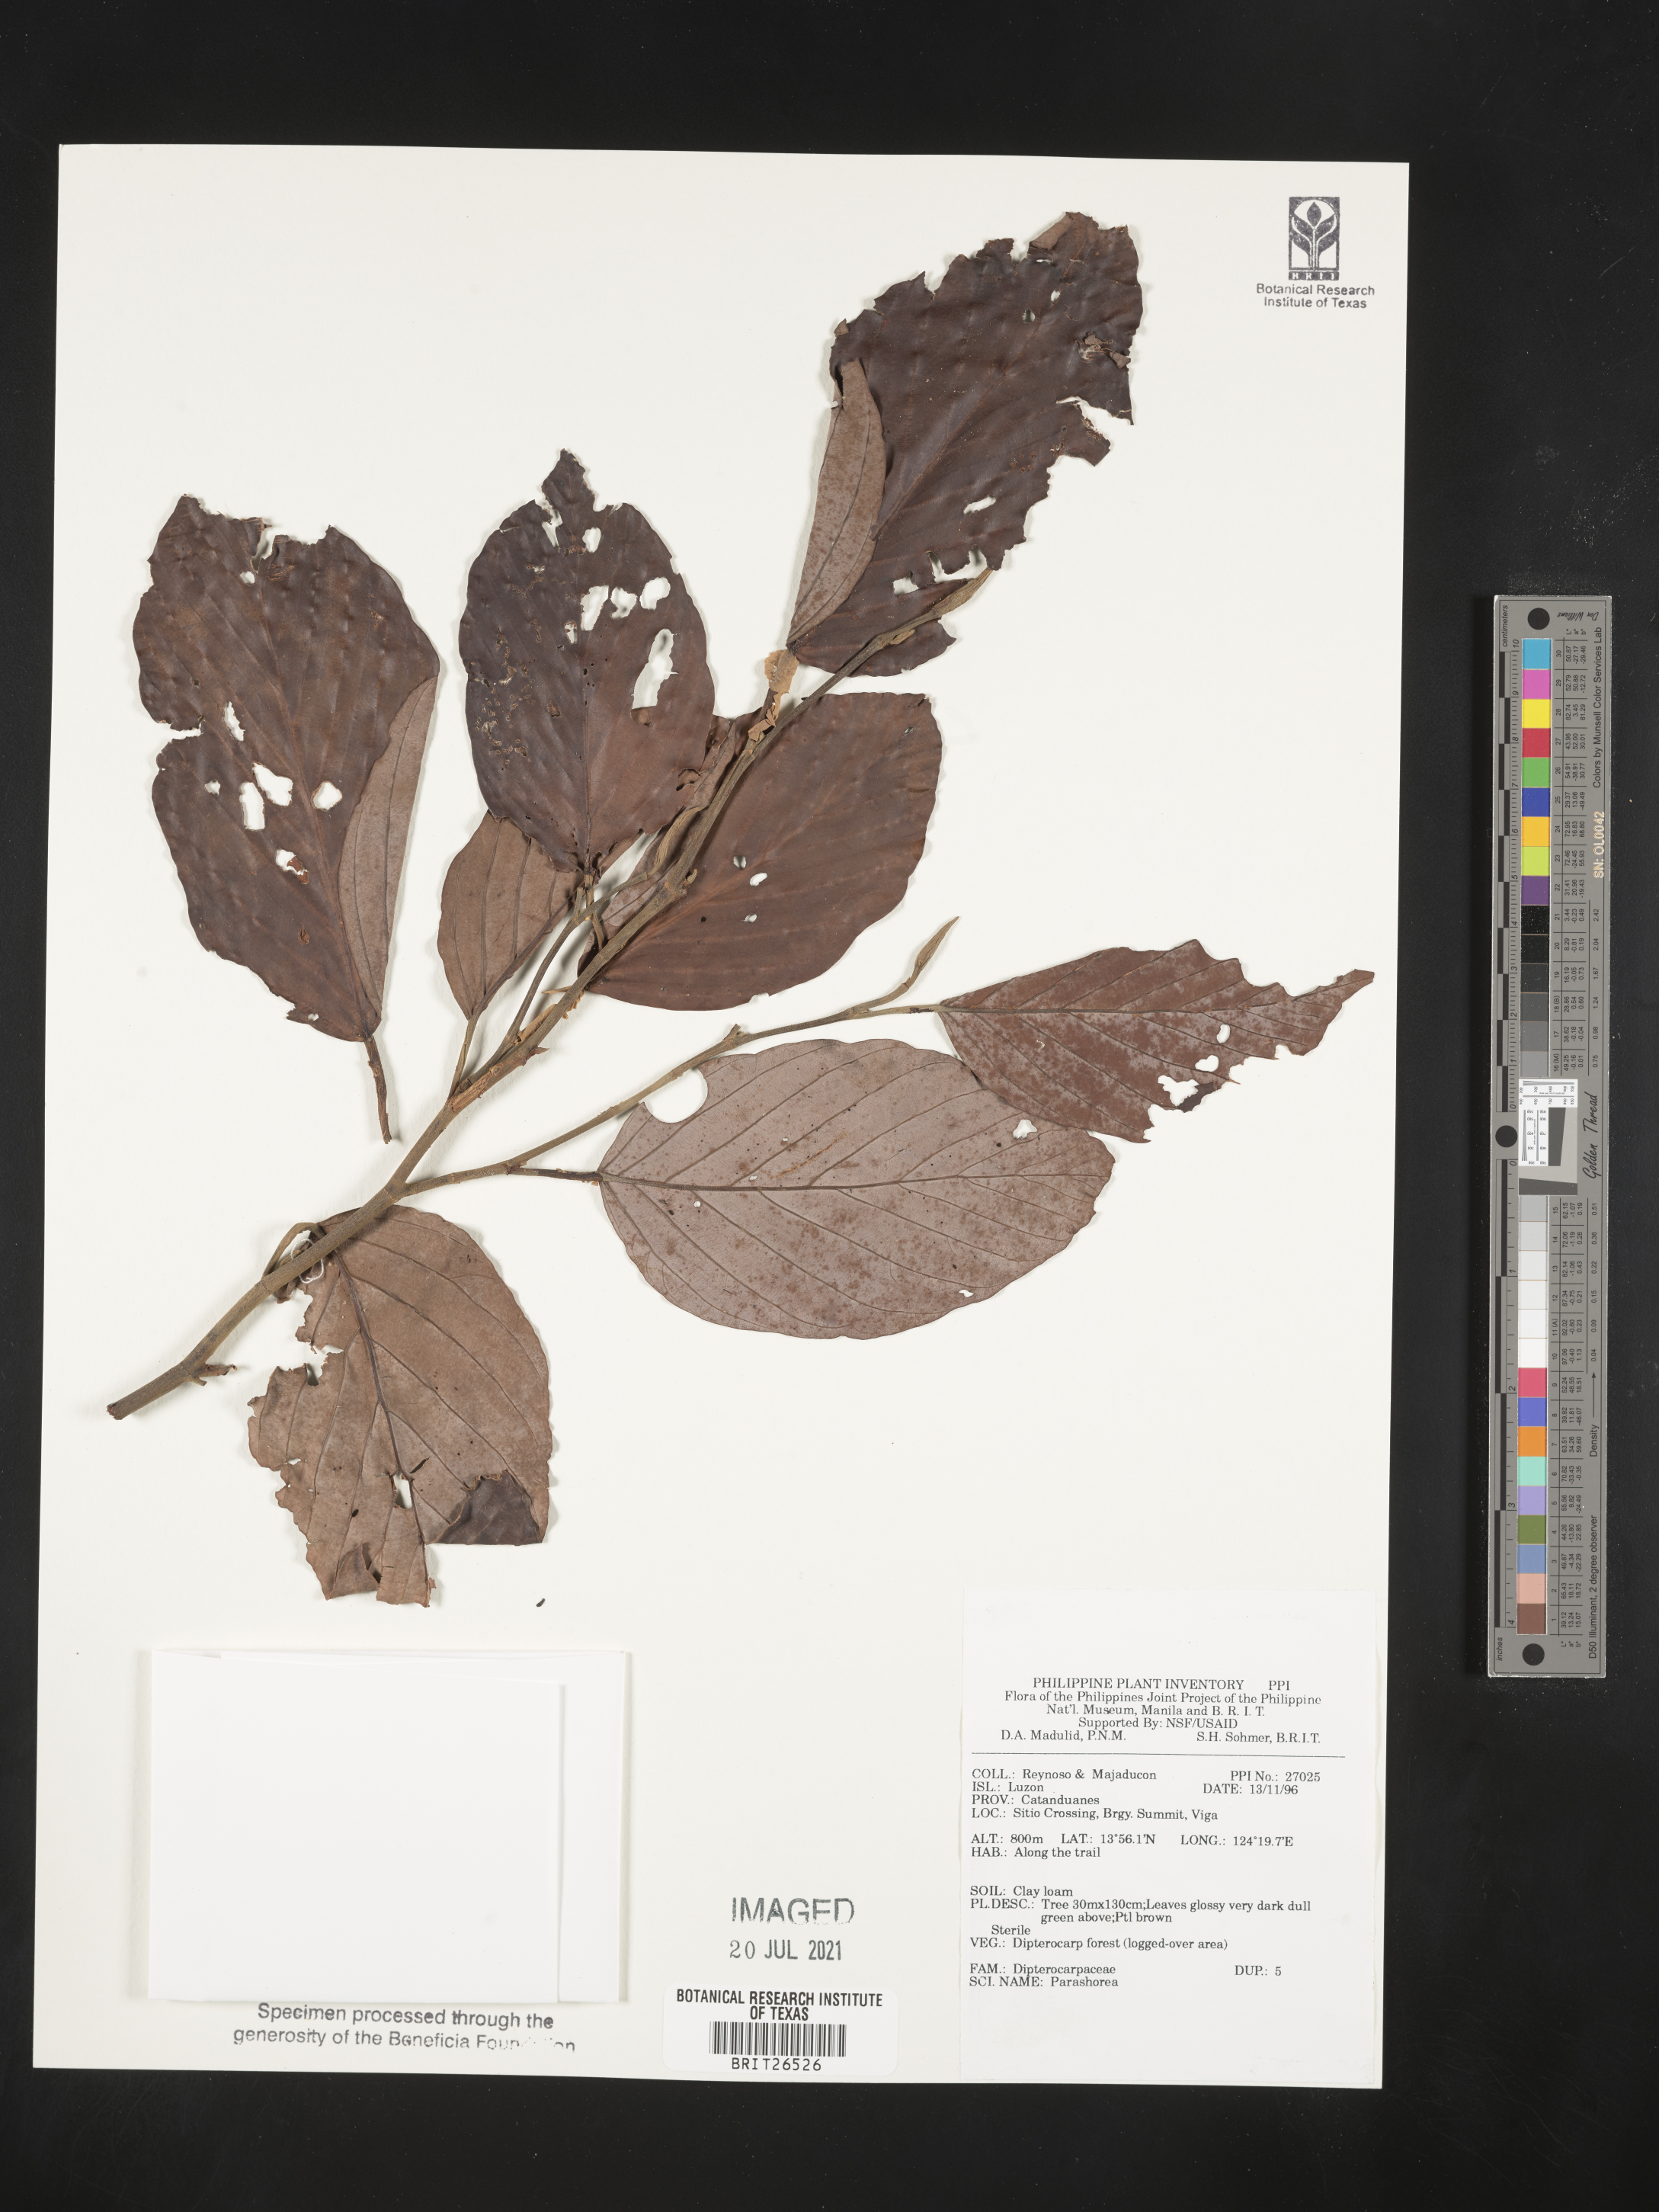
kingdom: Plantae
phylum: Tracheophyta
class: Magnoliopsida
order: Malvales
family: Dipterocarpaceae
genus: Parashorea
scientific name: Parashorea
